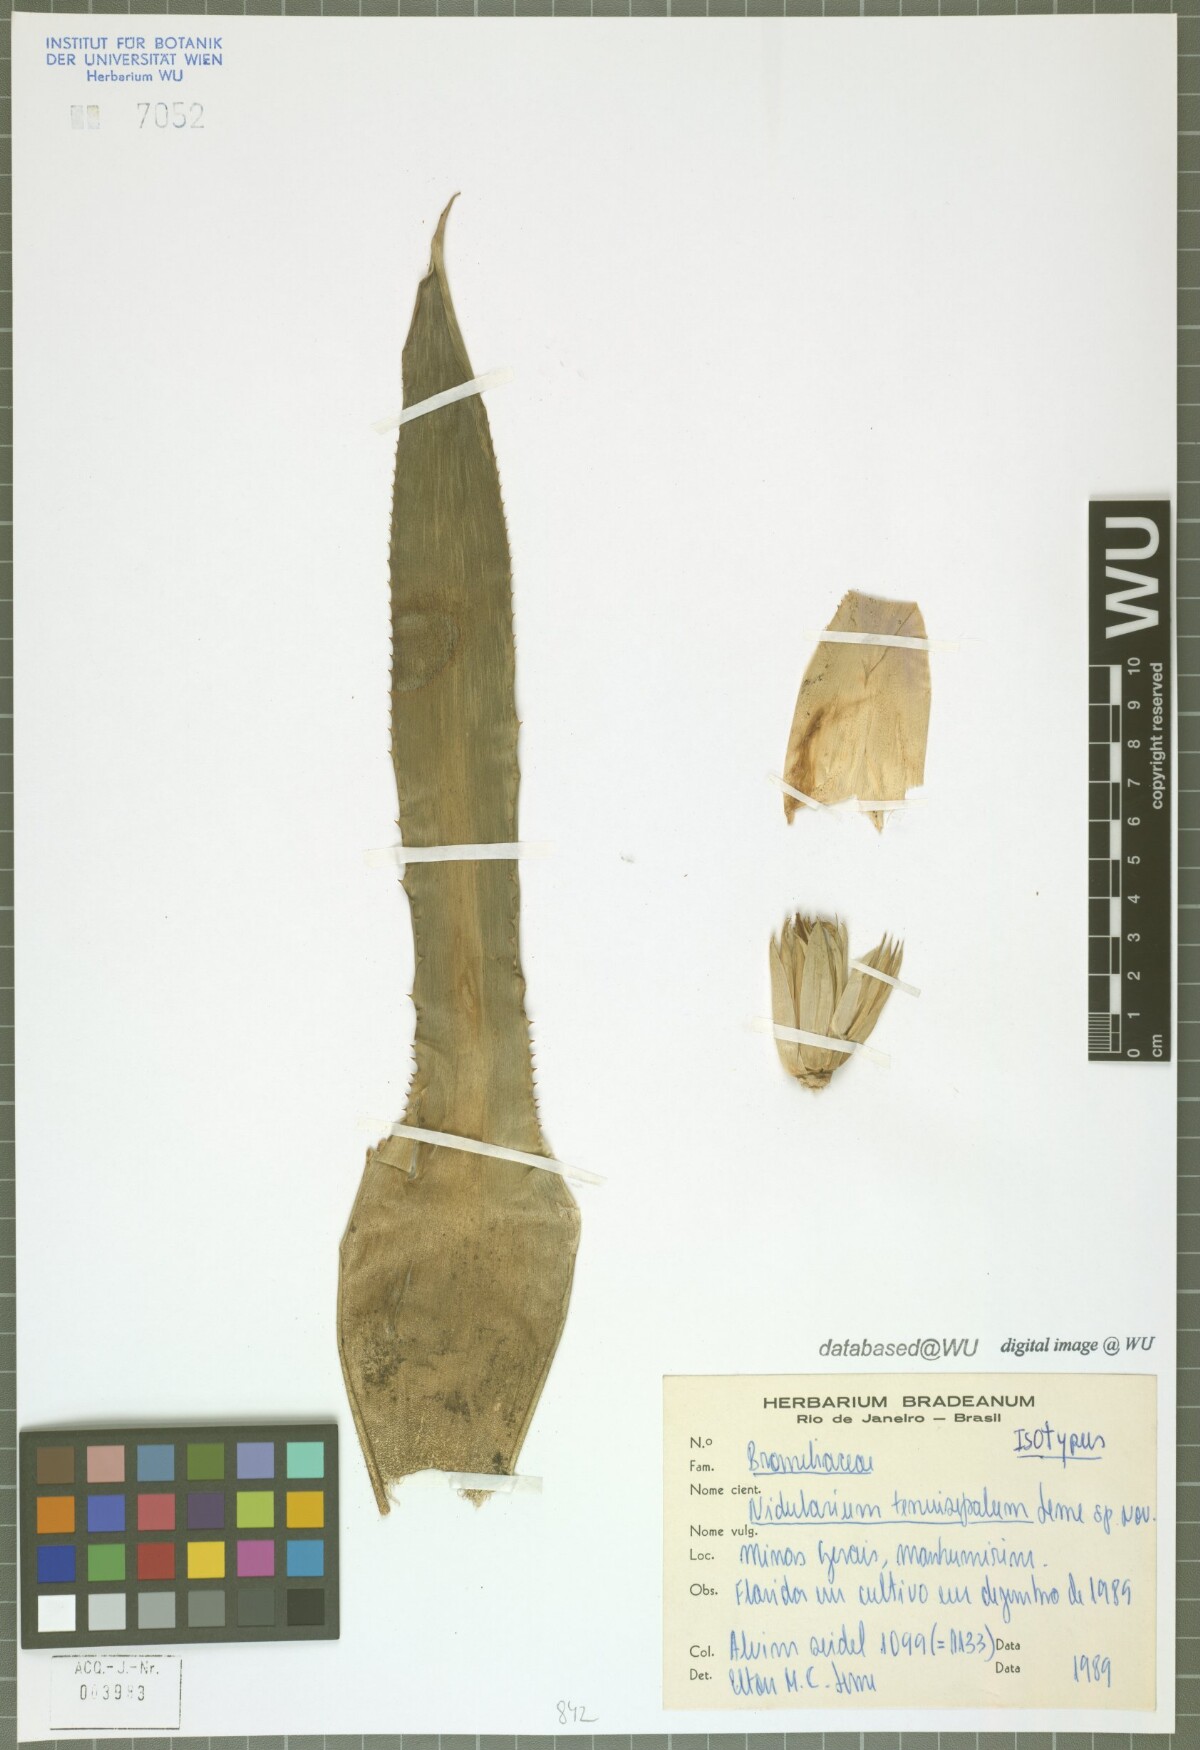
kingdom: Plantae
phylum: Tracheophyta
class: Liliopsida
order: Poales
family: Bromeliaceae
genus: Wittrockia
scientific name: Wittrockia tenuisepala
